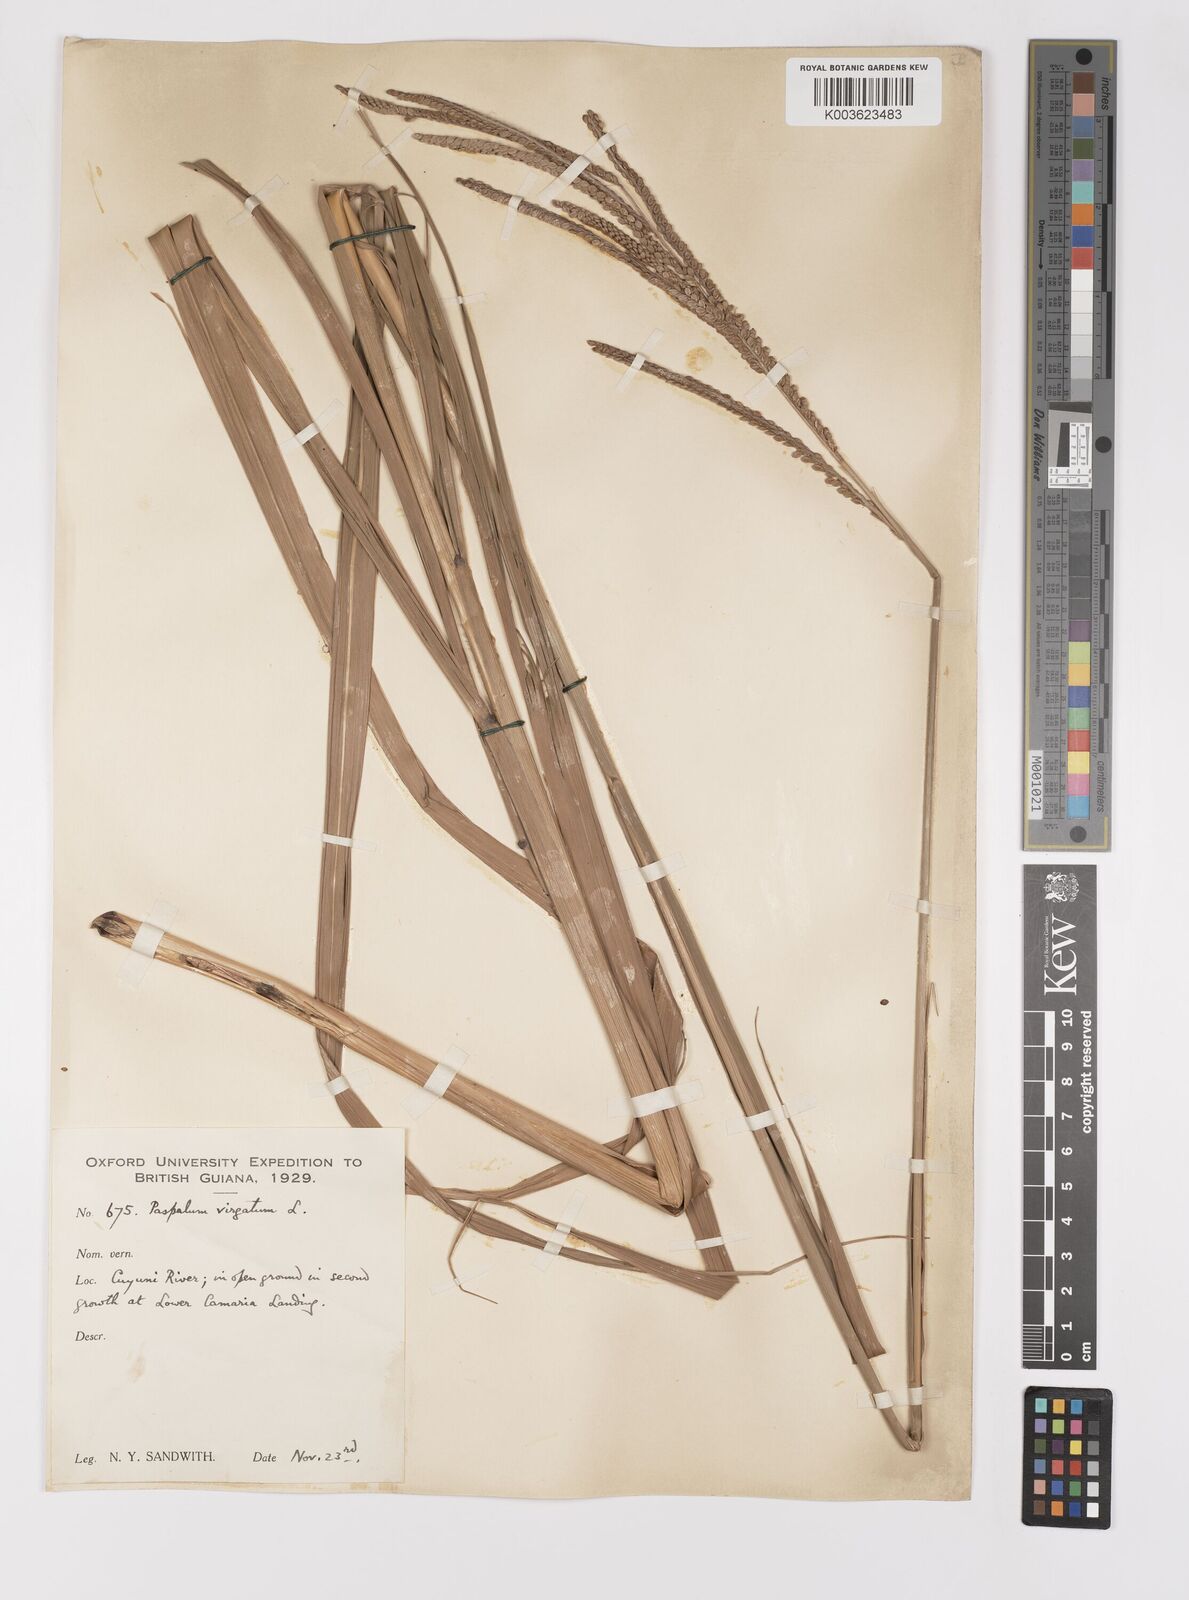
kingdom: Plantae
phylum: Tracheophyta
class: Liliopsida
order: Poales
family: Poaceae
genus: Paspalum
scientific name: Paspalum virgatum
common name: Talquezal
